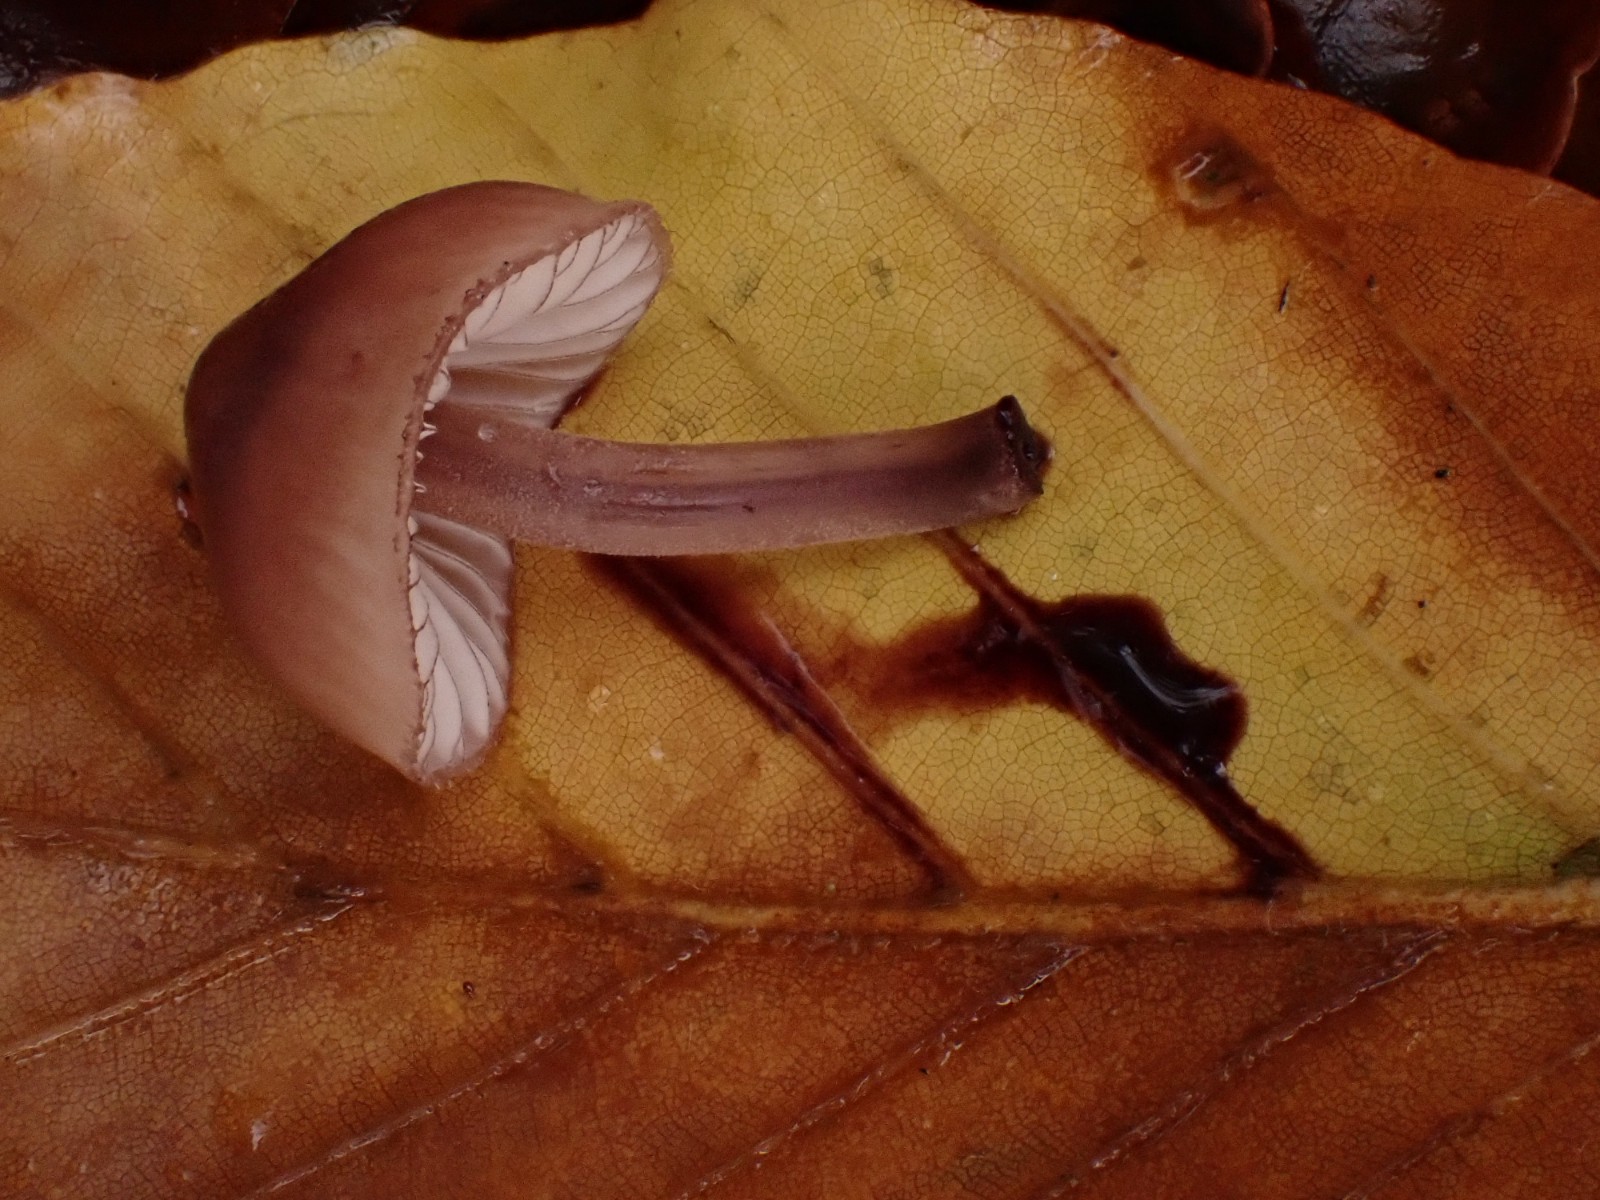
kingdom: Fungi
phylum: Basidiomycota
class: Agaricomycetes
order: Agaricales
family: Mycenaceae
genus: Mycena
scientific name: Mycena haematopus
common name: blødende huesvamp
